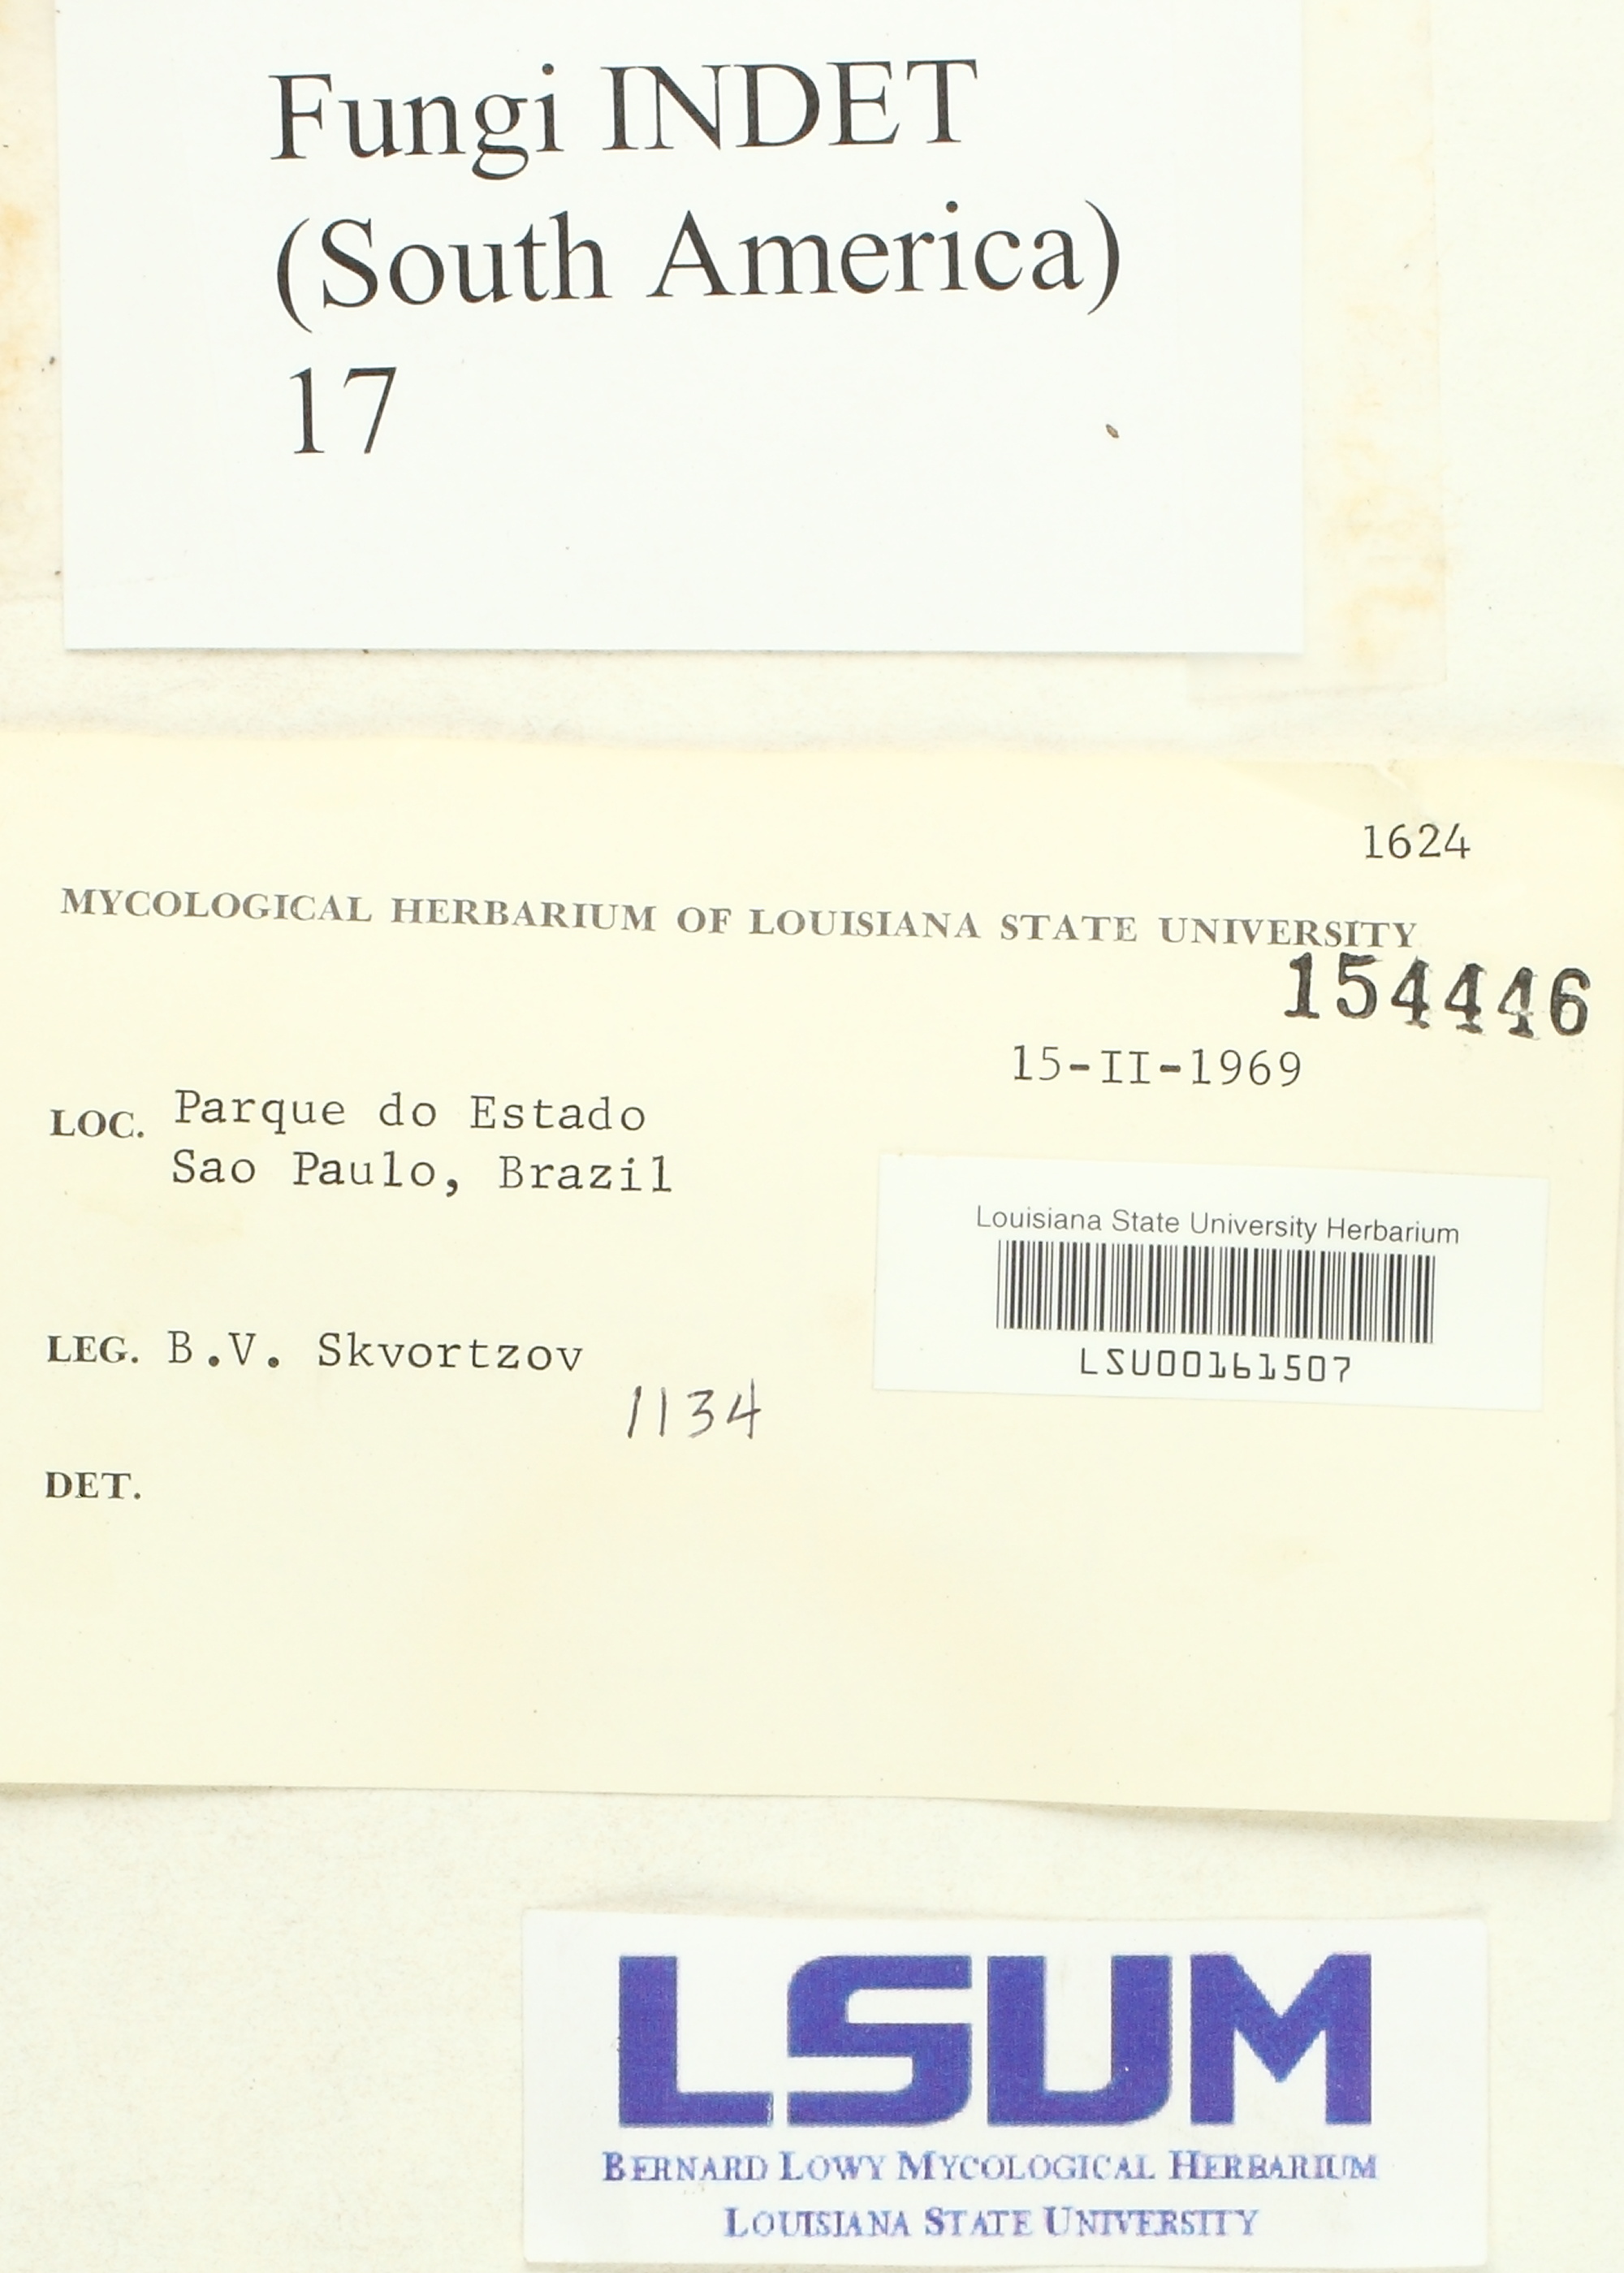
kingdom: Fungi
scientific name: Fungi
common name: Fungi
